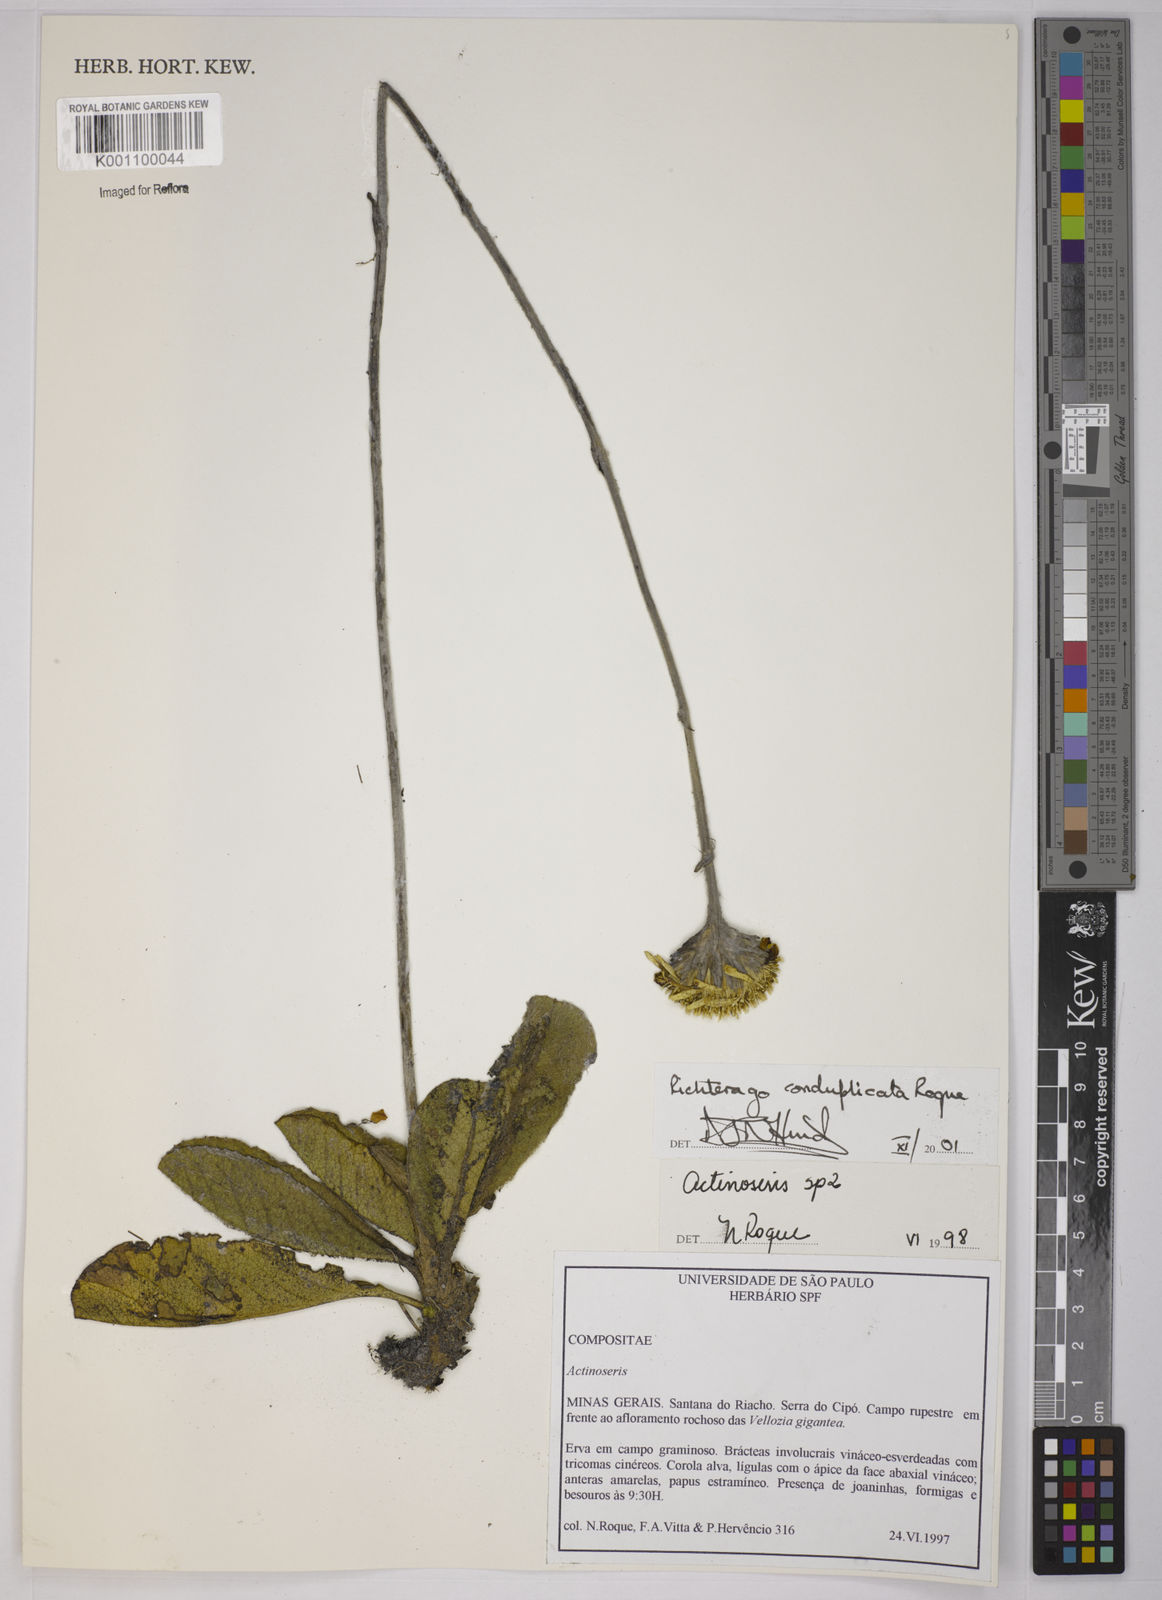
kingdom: Plantae
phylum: Tracheophyta
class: Magnoliopsida
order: Asterales
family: Asteraceae
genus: Richterago
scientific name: Richterago conduplicata
